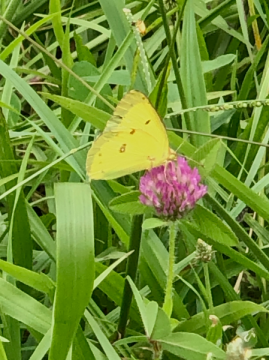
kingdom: Animalia
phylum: Arthropoda
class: Insecta
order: Lepidoptera
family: Pieridae
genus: Colias
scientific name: Colias philodice
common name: Clouded Sulphur
